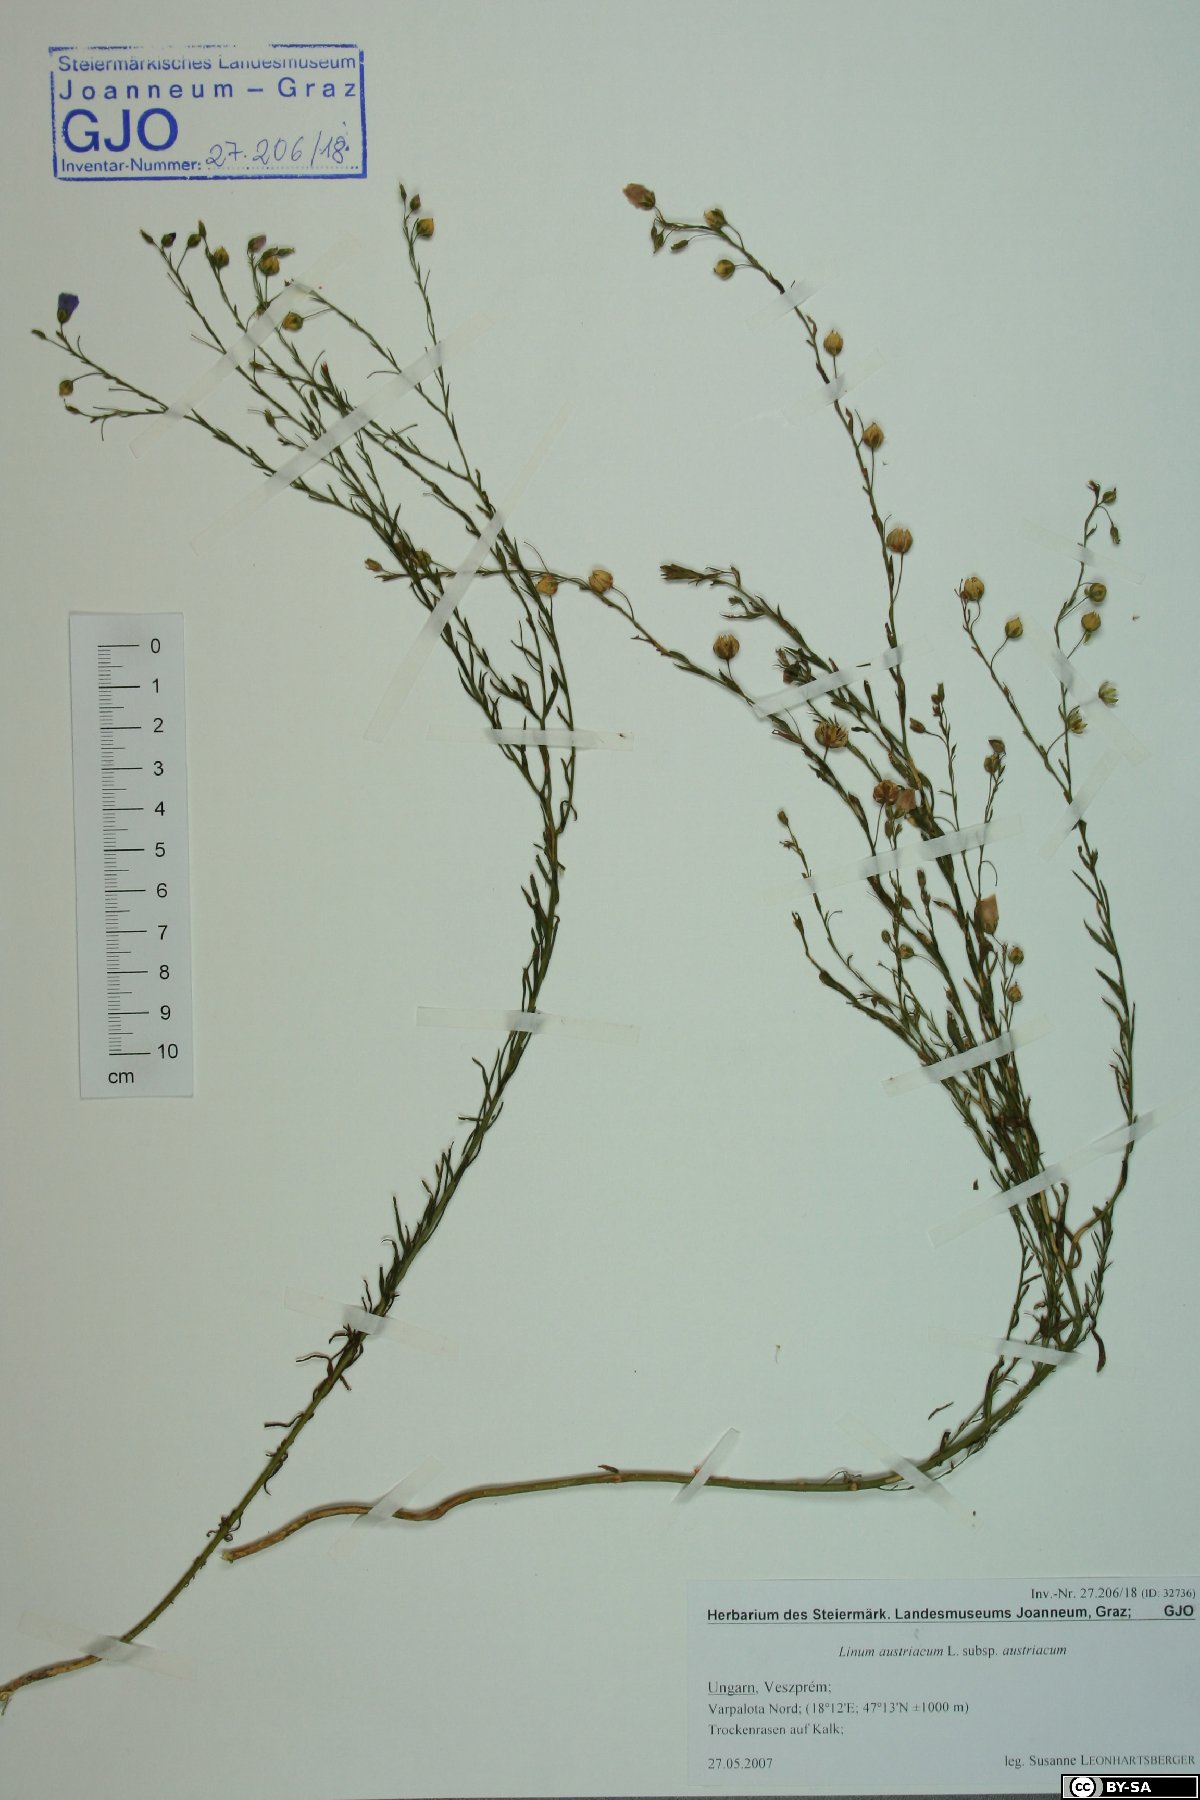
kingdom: Plantae
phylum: Tracheophyta
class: Magnoliopsida
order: Malpighiales
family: Linaceae
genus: Linum
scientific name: Linum austriacum
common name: Austrian flax
